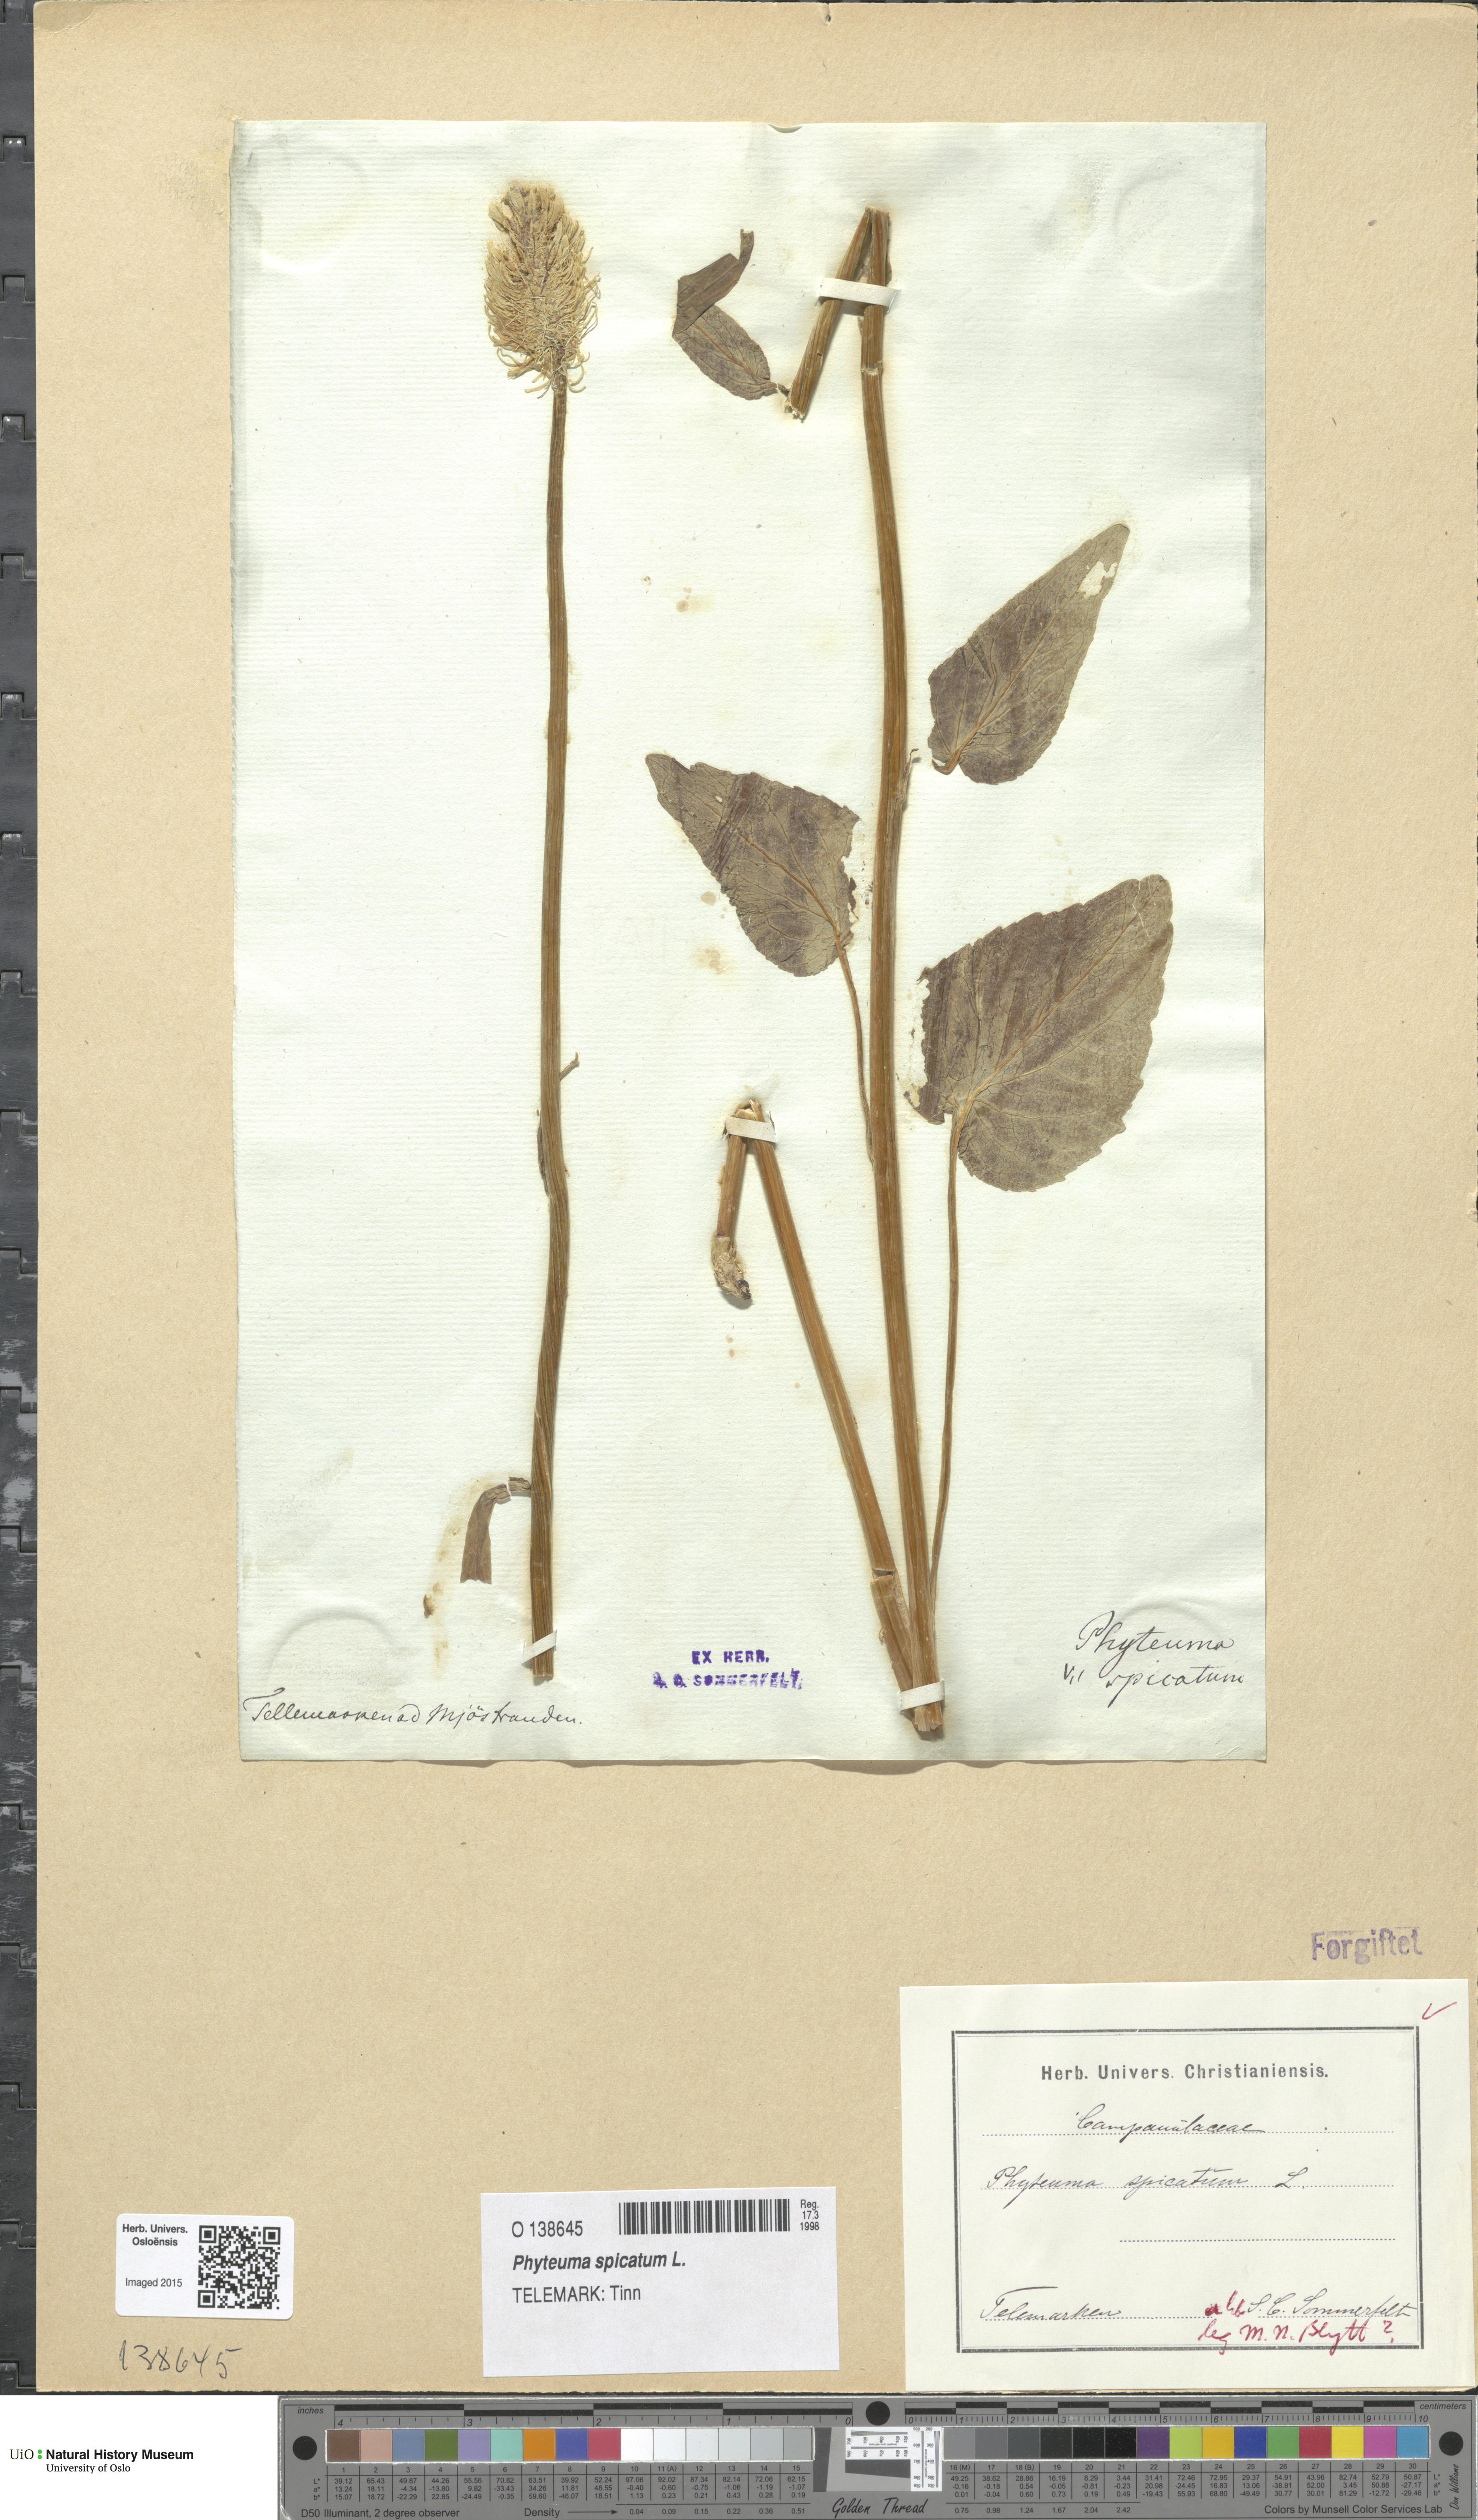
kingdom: Plantae
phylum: Tracheophyta
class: Magnoliopsida
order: Asterales
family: Campanulaceae
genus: Phyteuma
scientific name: Phyteuma spicatum
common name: Spiked rampion
